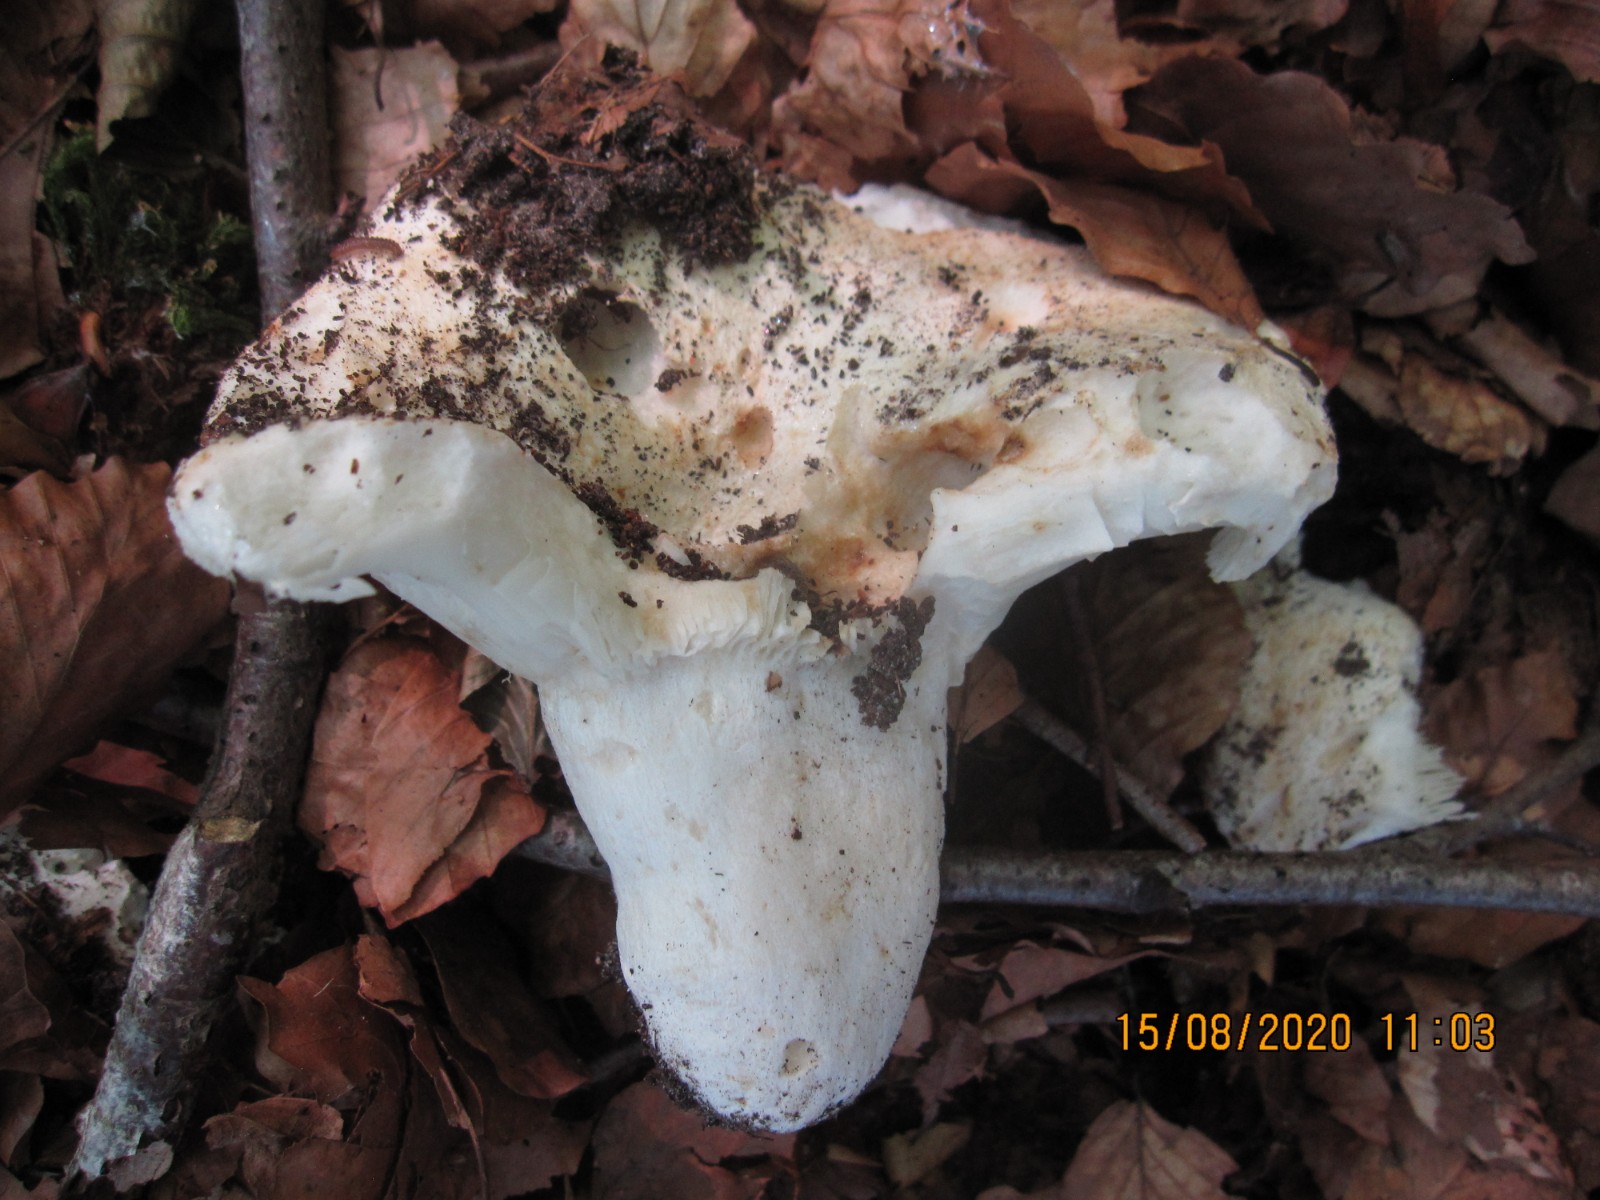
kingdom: Fungi
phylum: Basidiomycota
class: Agaricomycetes
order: Russulales
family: Russulaceae
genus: Russula
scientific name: Russula chloroides
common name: grønhalset tragt-skørhat
